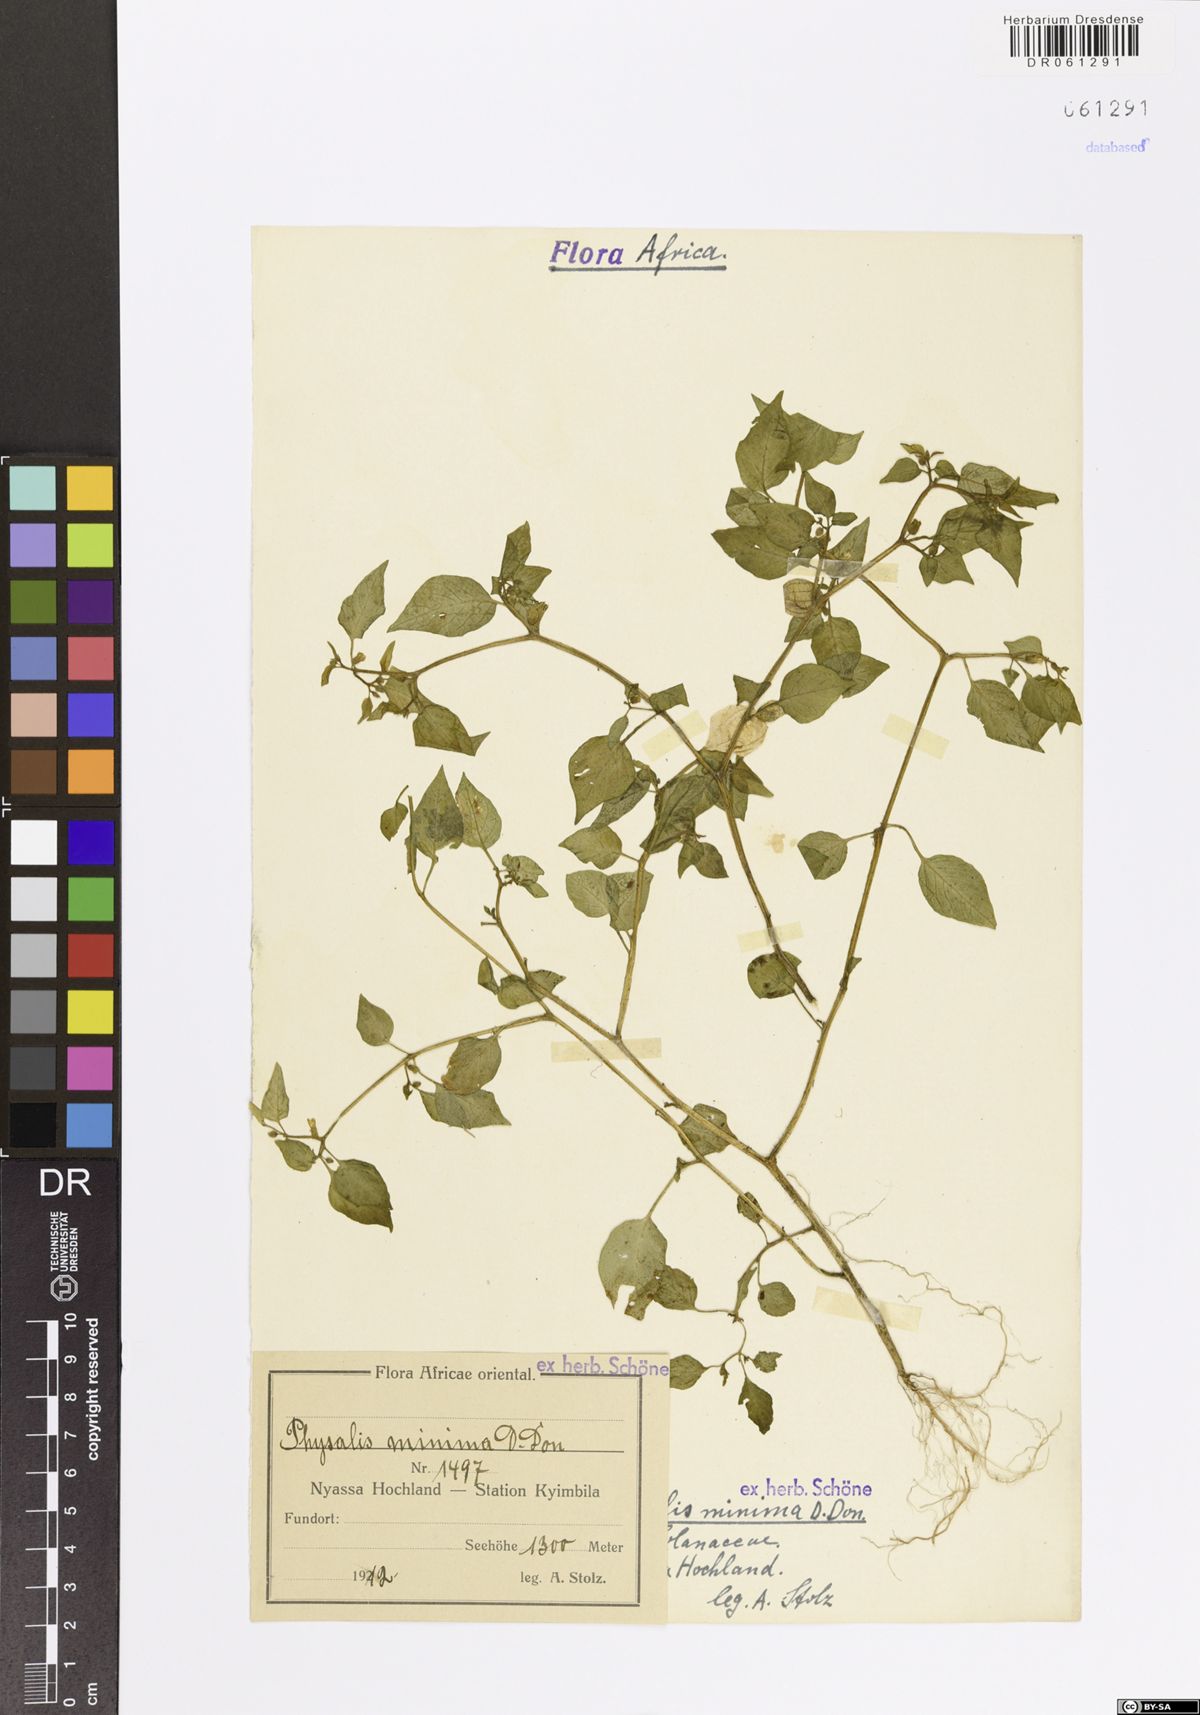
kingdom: Plantae
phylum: Tracheophyta
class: Magnoliopsida
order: Solanales
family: Solanaceae
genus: Physalis
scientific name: Physalis angulata
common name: Angular winter-cherry
